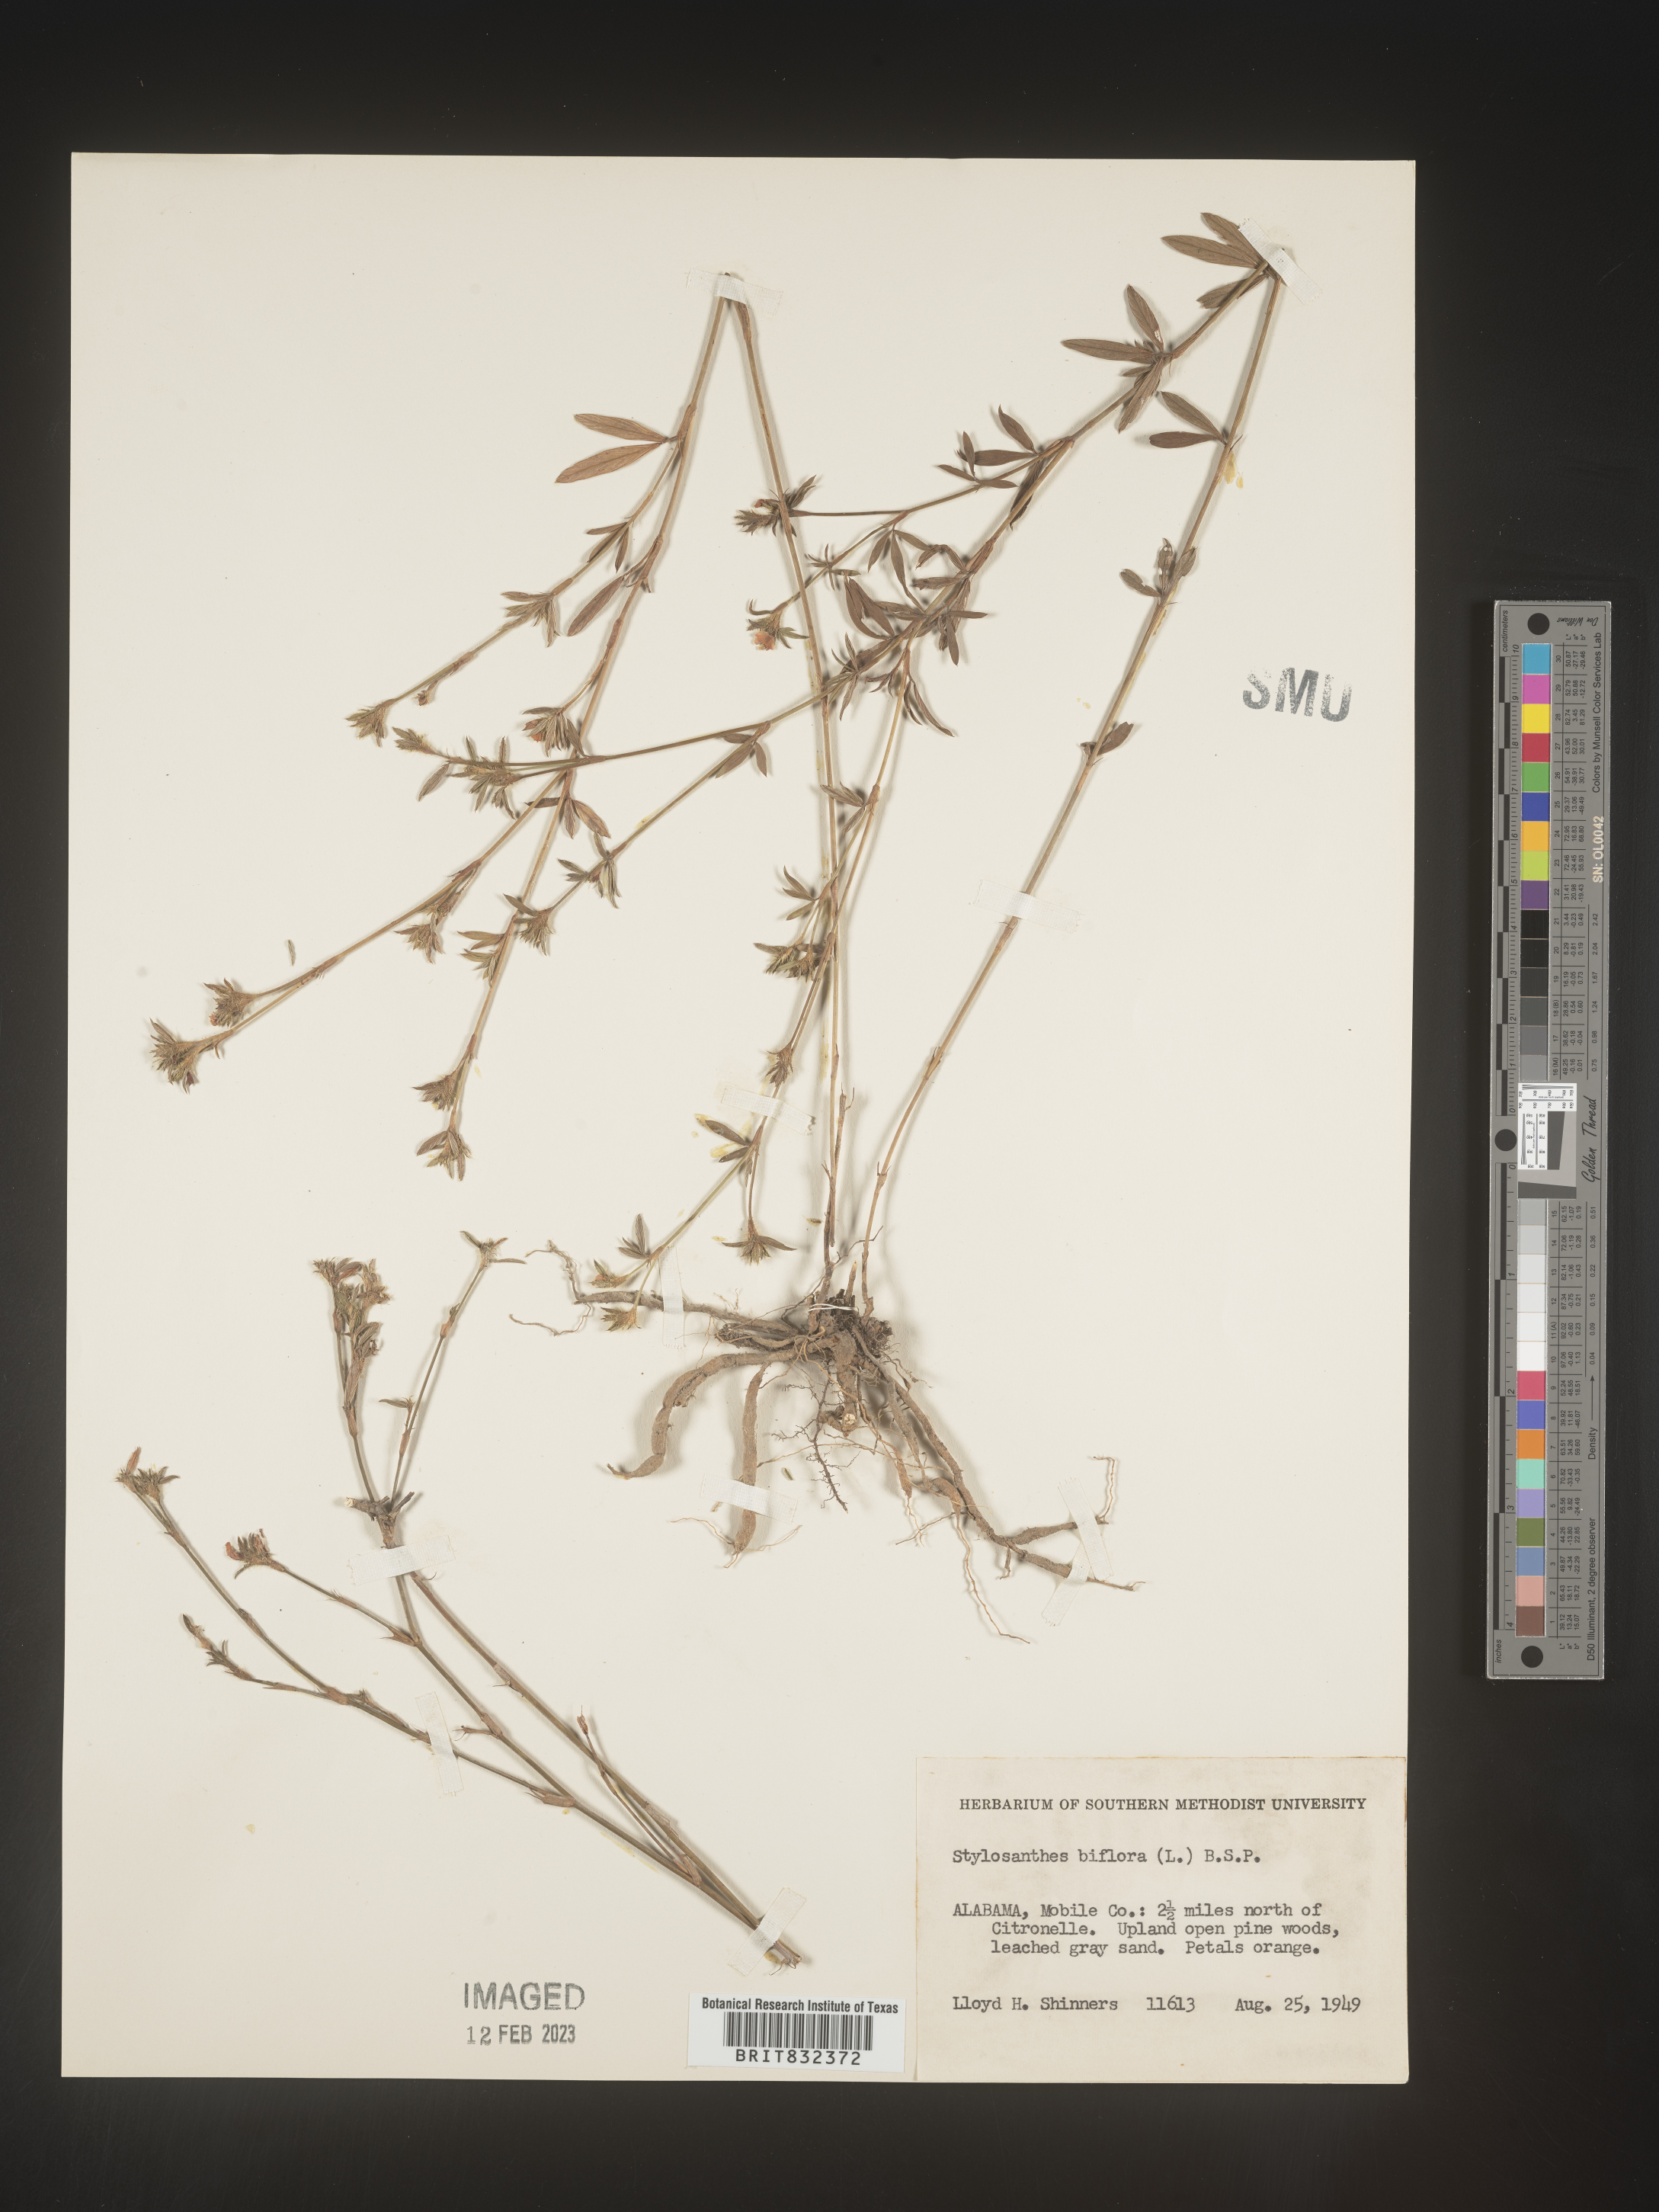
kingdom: Plantae
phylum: Tracheophyta
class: Magnoliopsida
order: Fabales
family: Fabaceae
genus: Stylosanthes
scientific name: Stylosanthes biflora
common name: Two-flower pencil-flower
